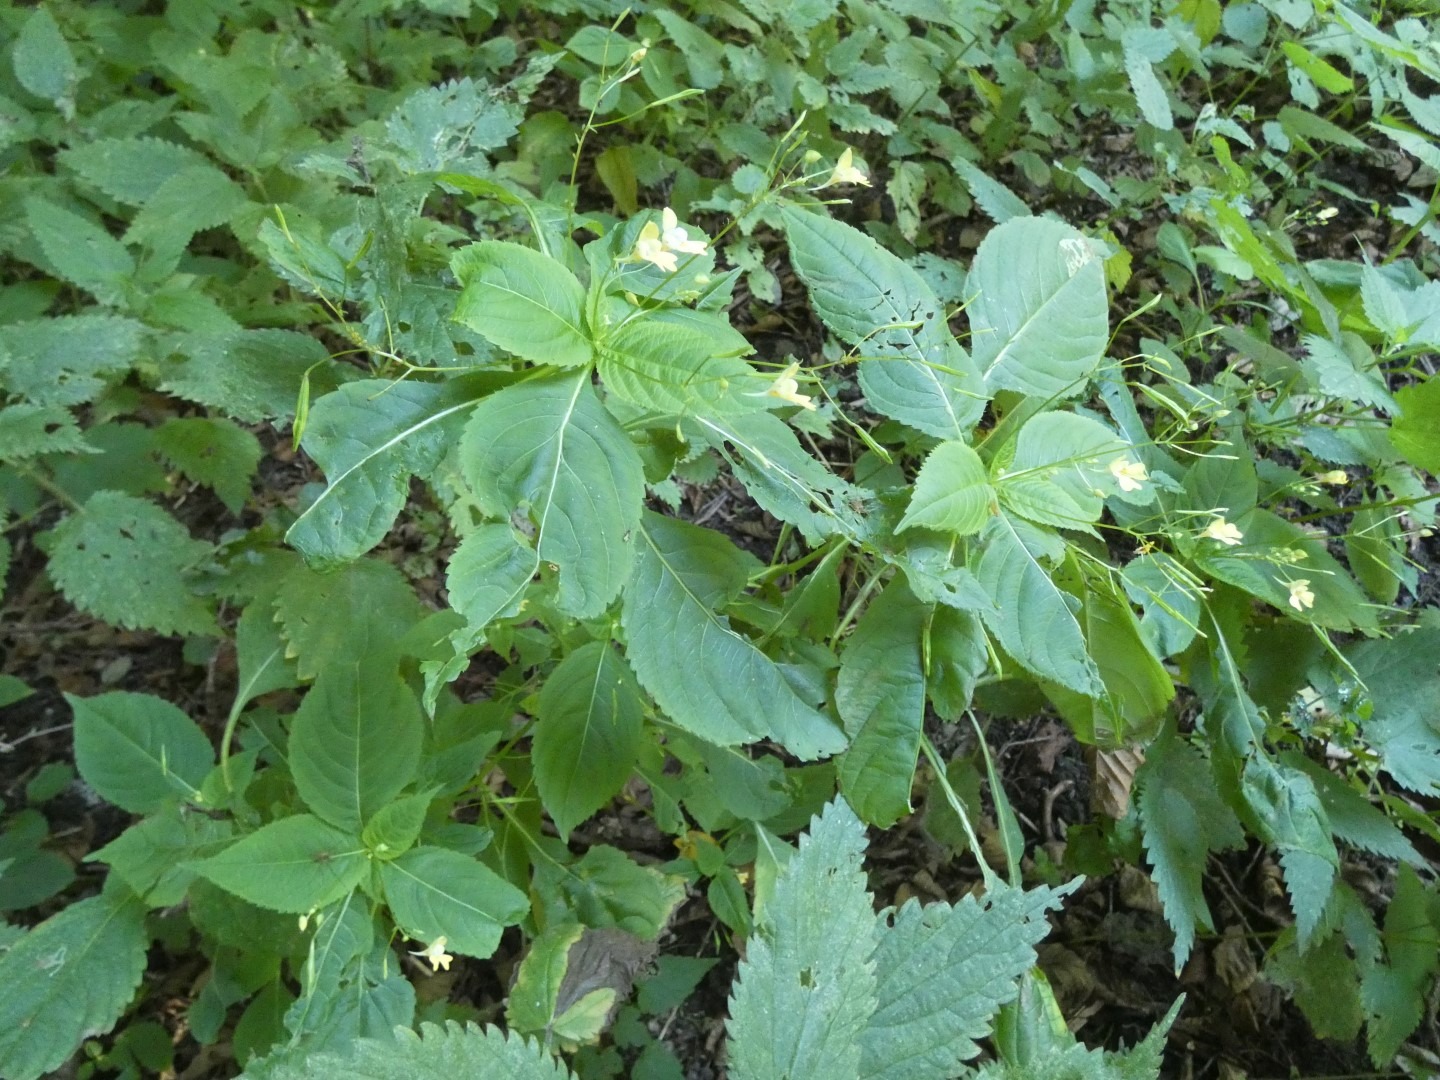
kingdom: Plantae
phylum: Tracheophyta
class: Magnoliopsida
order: Ericales
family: Balsaminaceae
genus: Impatiens
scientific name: Impatiens parviflora
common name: Småblomstret balsamin
